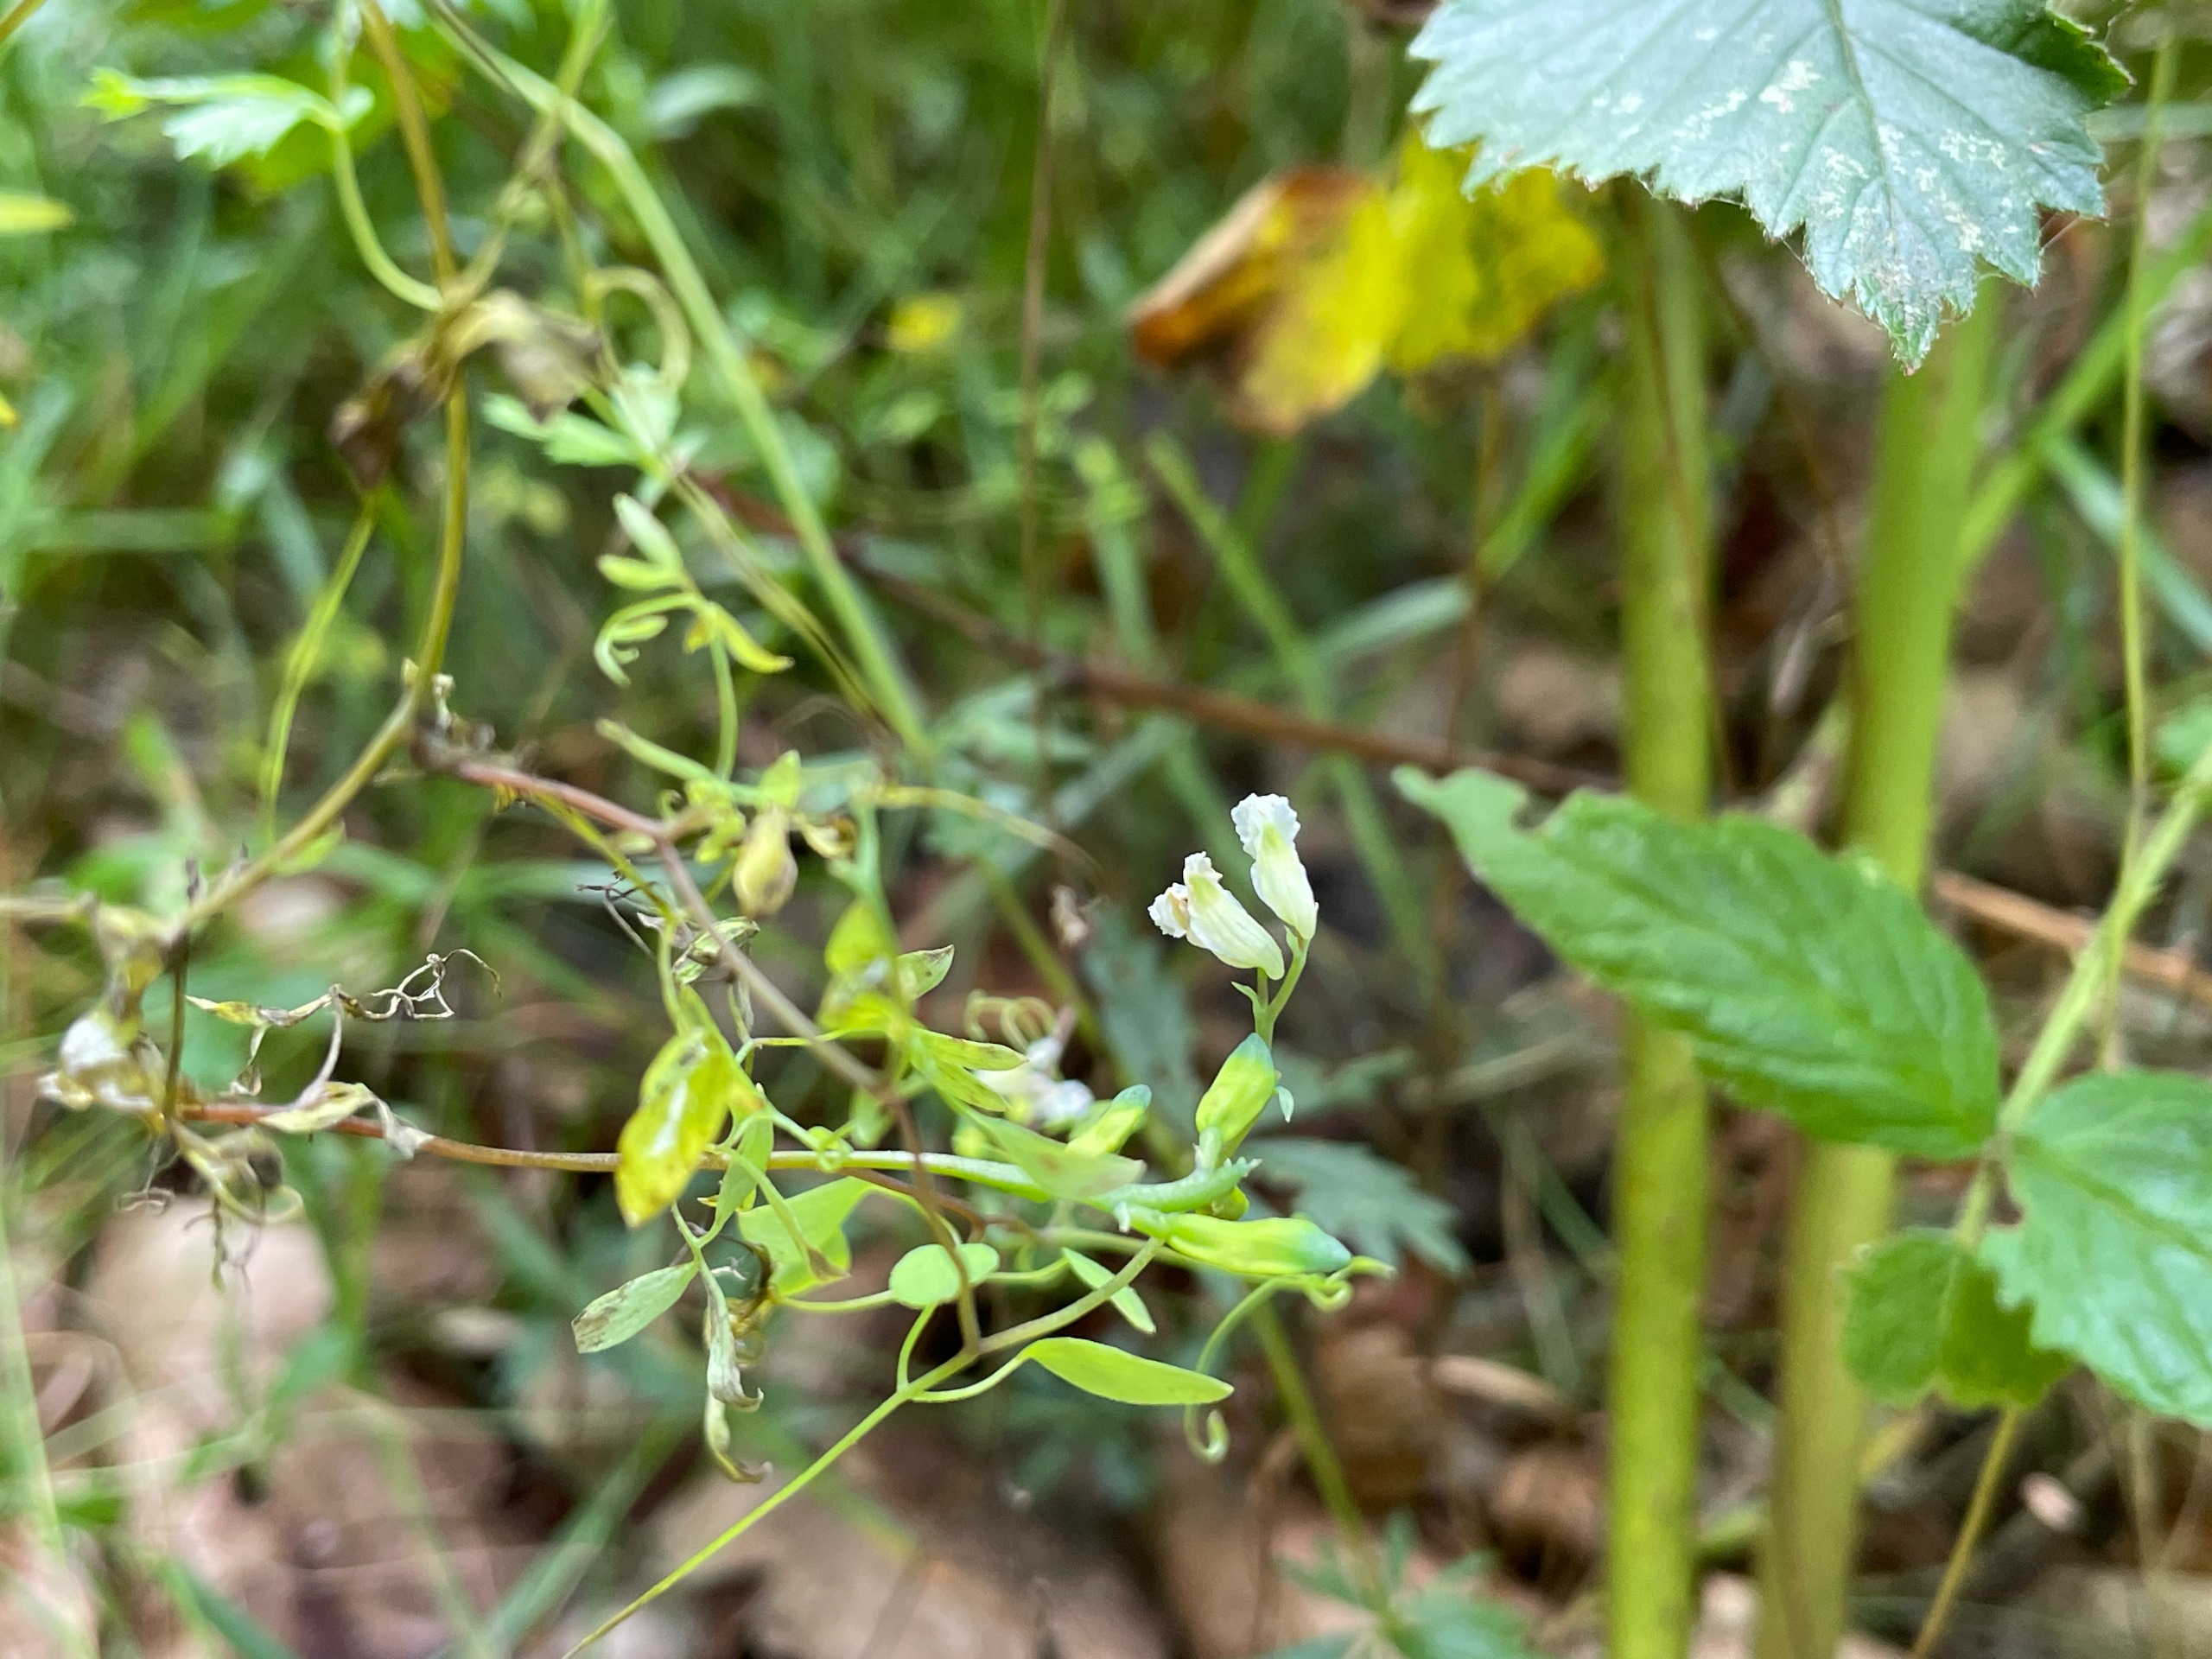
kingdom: Plantae
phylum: Tracheophyta
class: Magnoliopsida
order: Ranunculales
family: Papaveraceae
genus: Ceratocapnos
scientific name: Ceratocapnos claviculata
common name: Klatrende lærkespore
